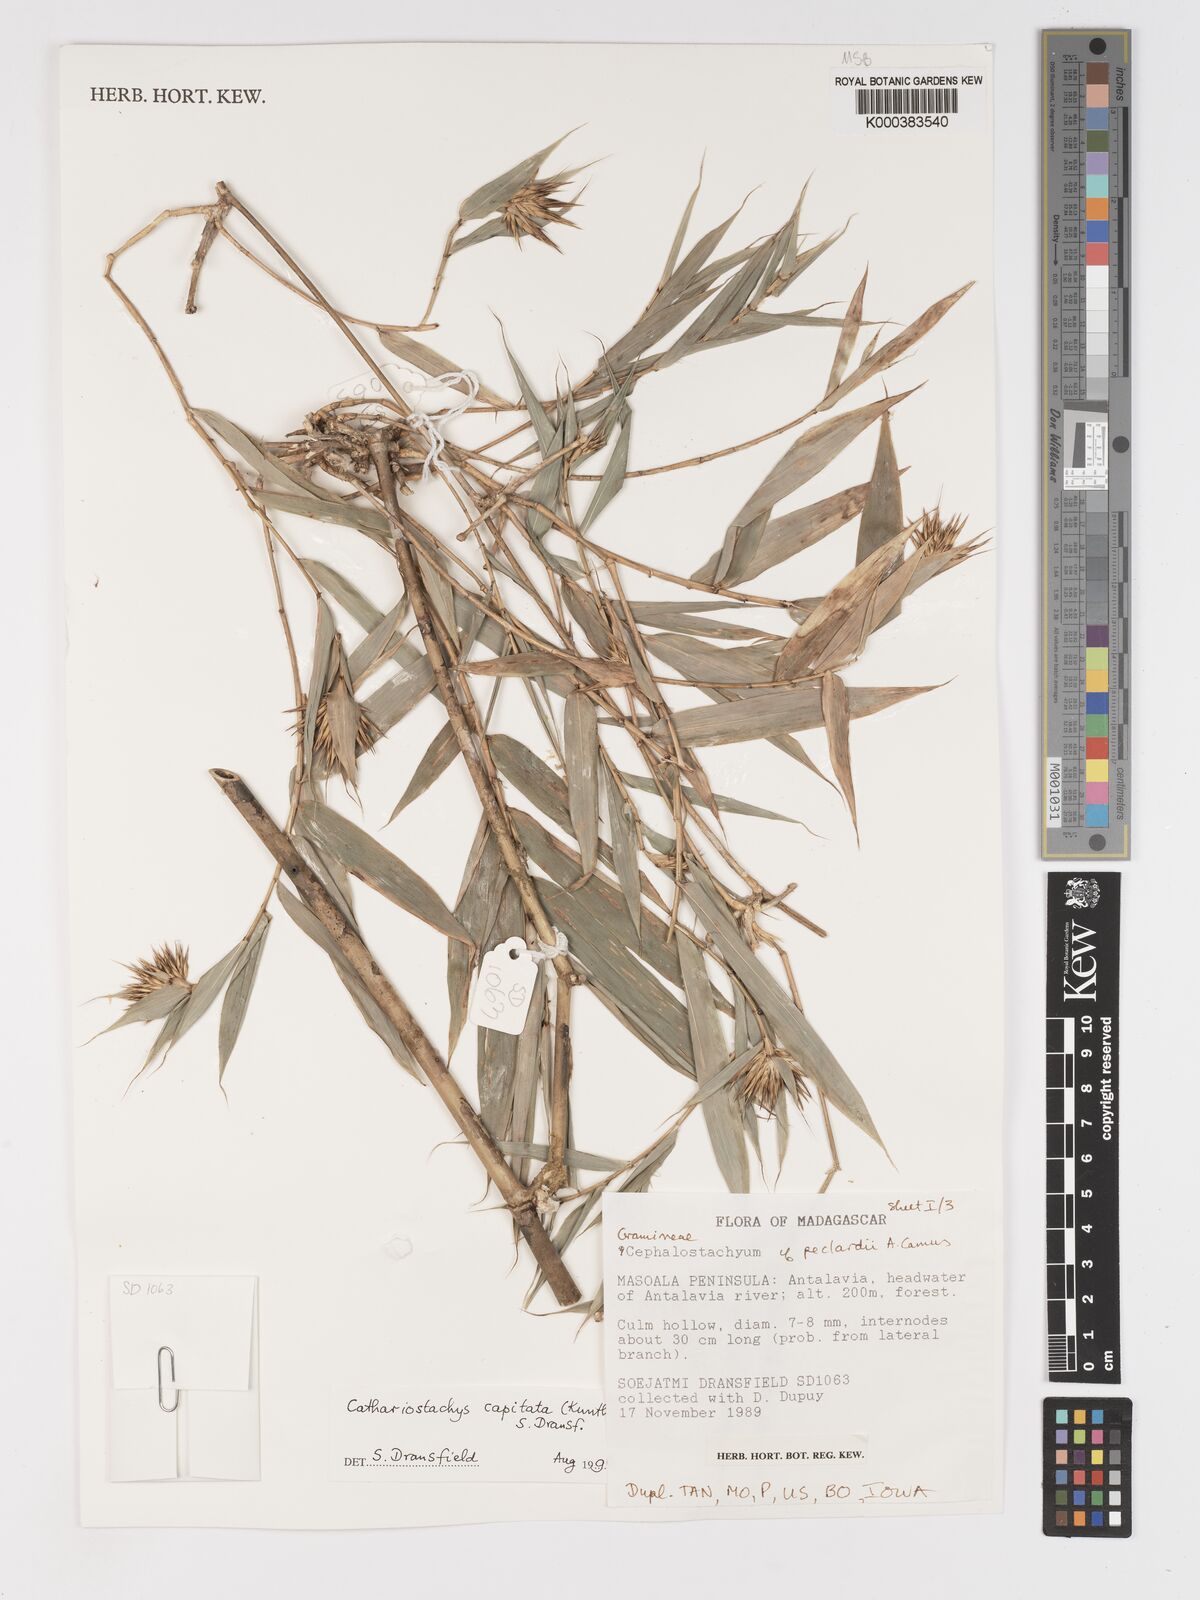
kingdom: Plantae
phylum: Tracheophyta
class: Liliopsida
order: Poales
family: Poaceae
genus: Cathariostachys
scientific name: Cathariostachys capitata
